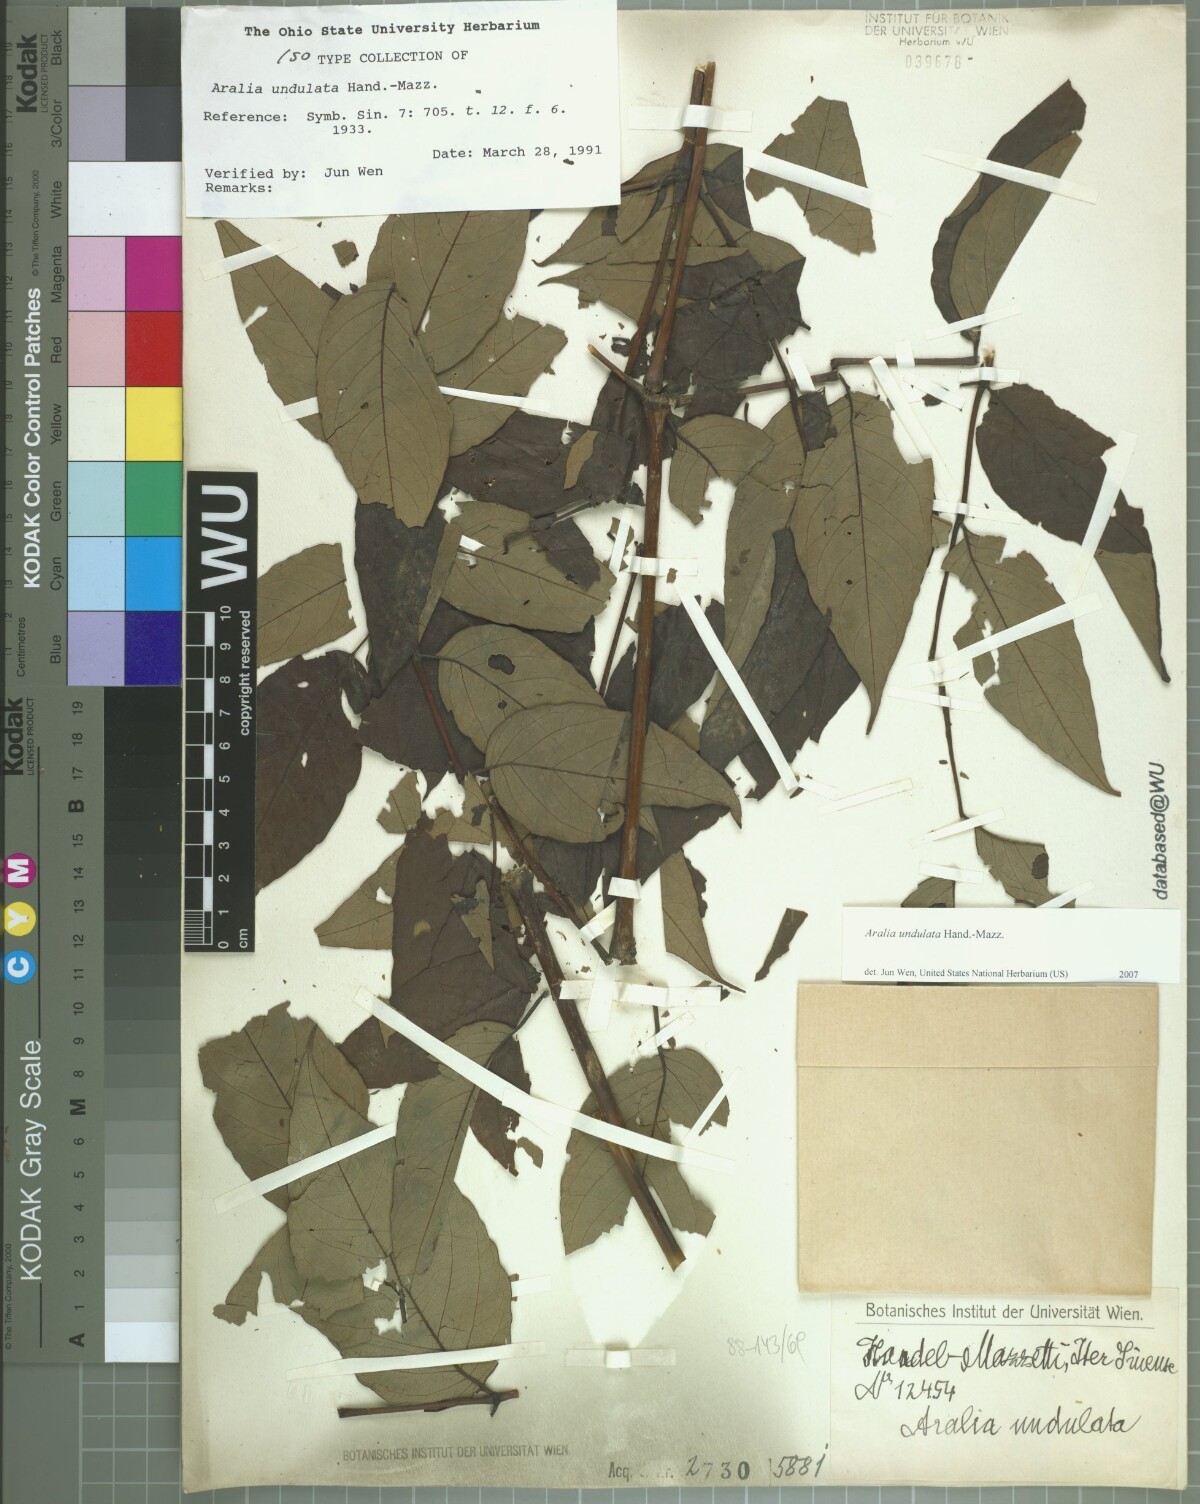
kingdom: Plantae
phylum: Tracheophyta
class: Magnoliopsida
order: Apiales
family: Araliaceae
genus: Aralia
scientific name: Aralia undulata
